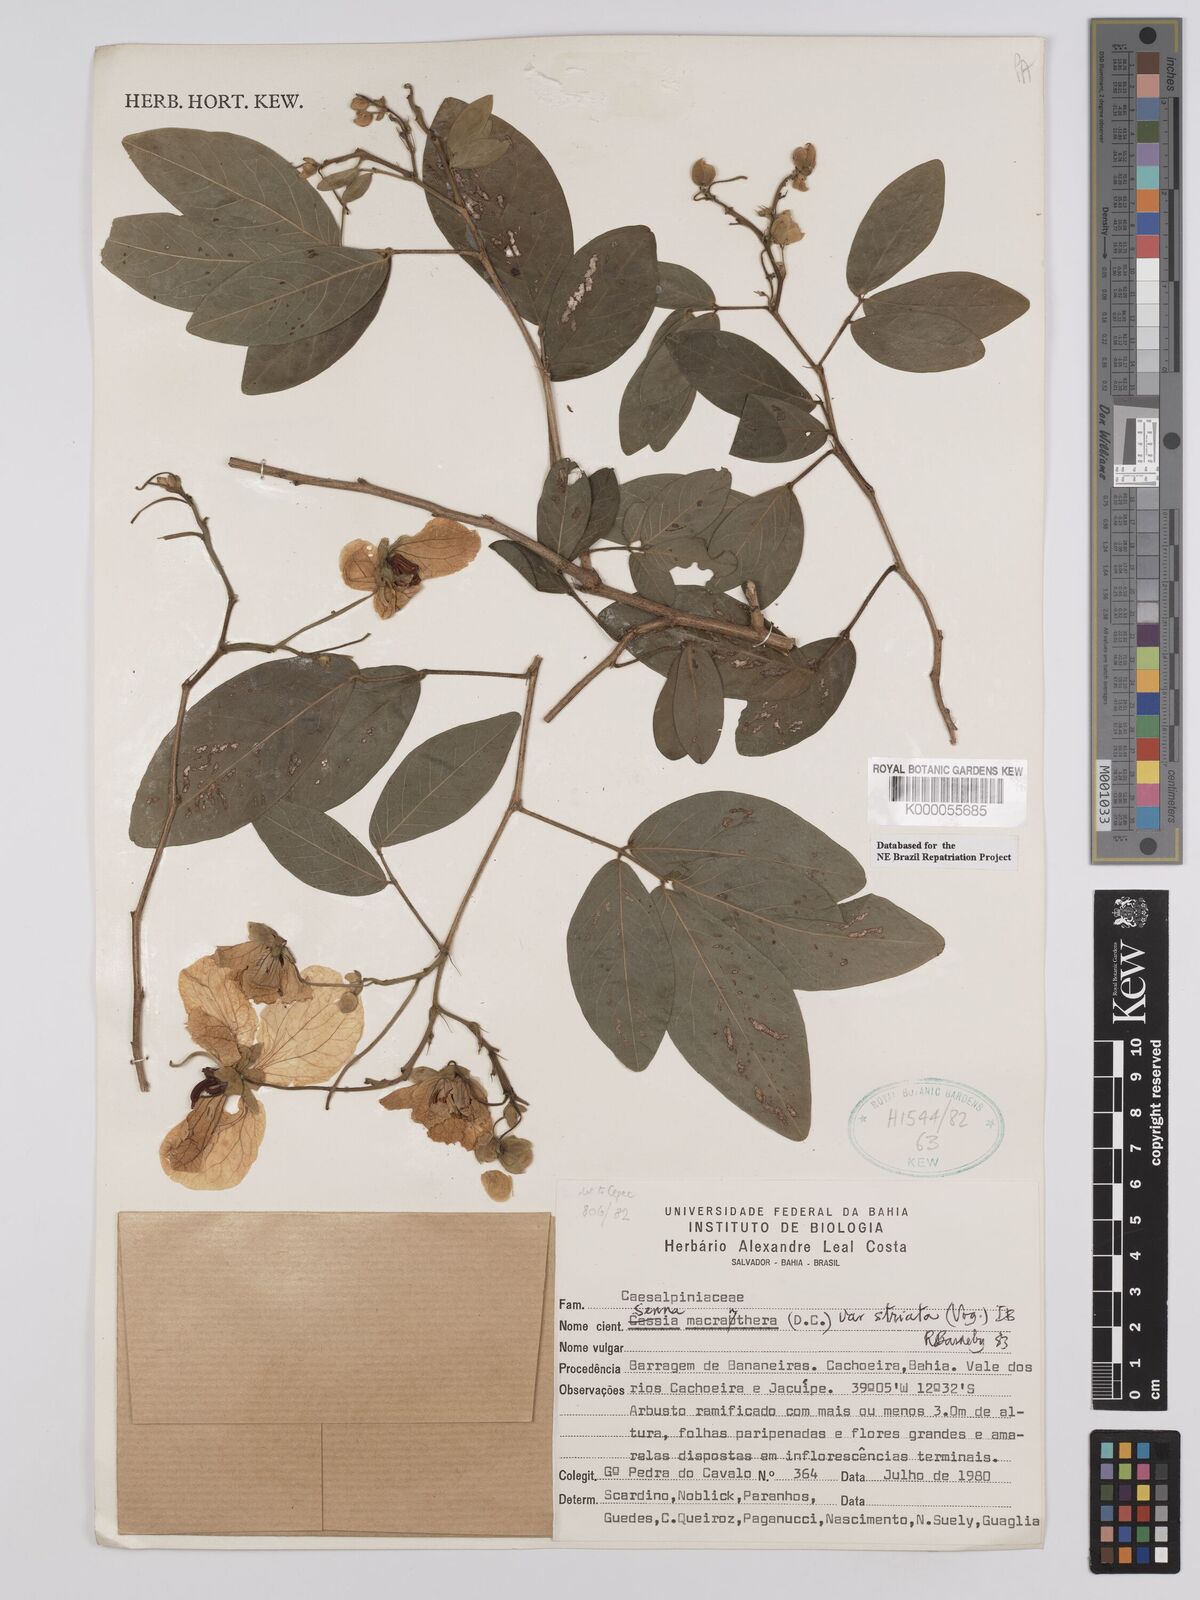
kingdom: Plantae
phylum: Tracheophyta
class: Magnoliopsida
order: Fabales
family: Fabaceae
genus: Senna
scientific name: Senna macranthera
